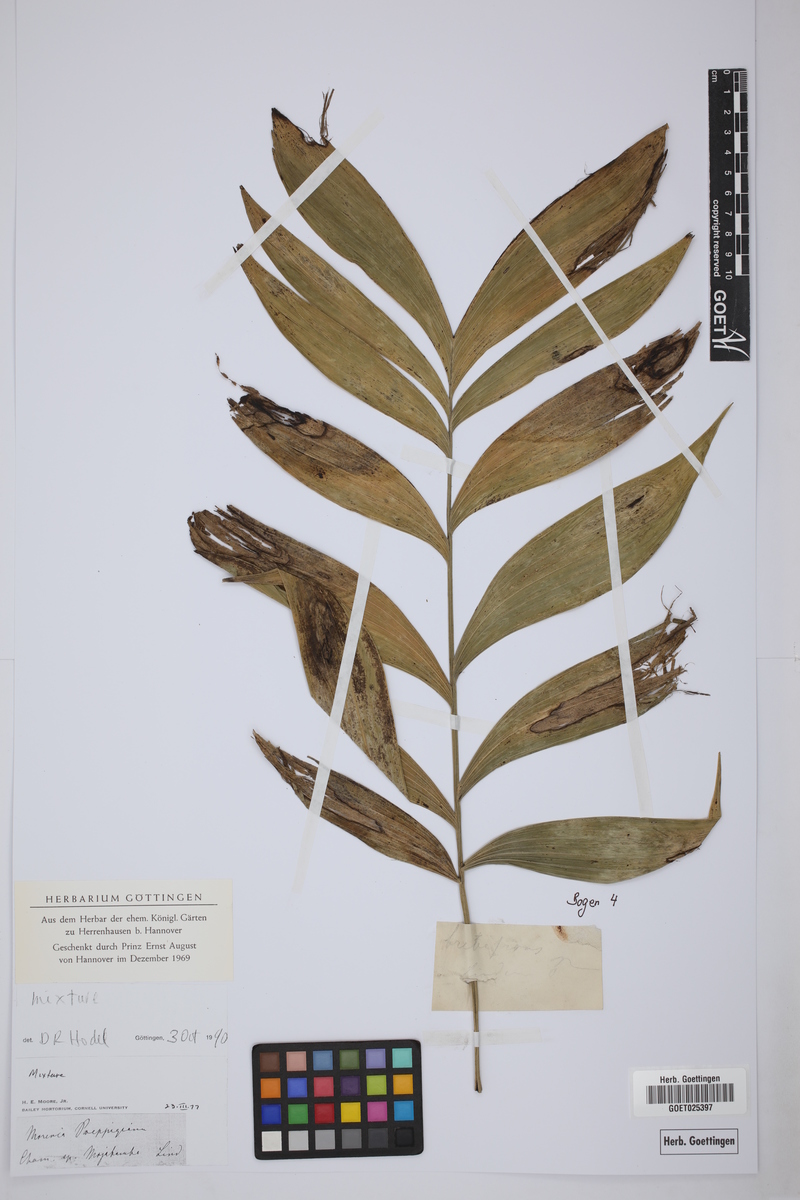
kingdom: Plantae
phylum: Tracheophyta
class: Liliopsida
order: Arecales
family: Arecaceae
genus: Chamaedorea
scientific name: Chamaedorea
